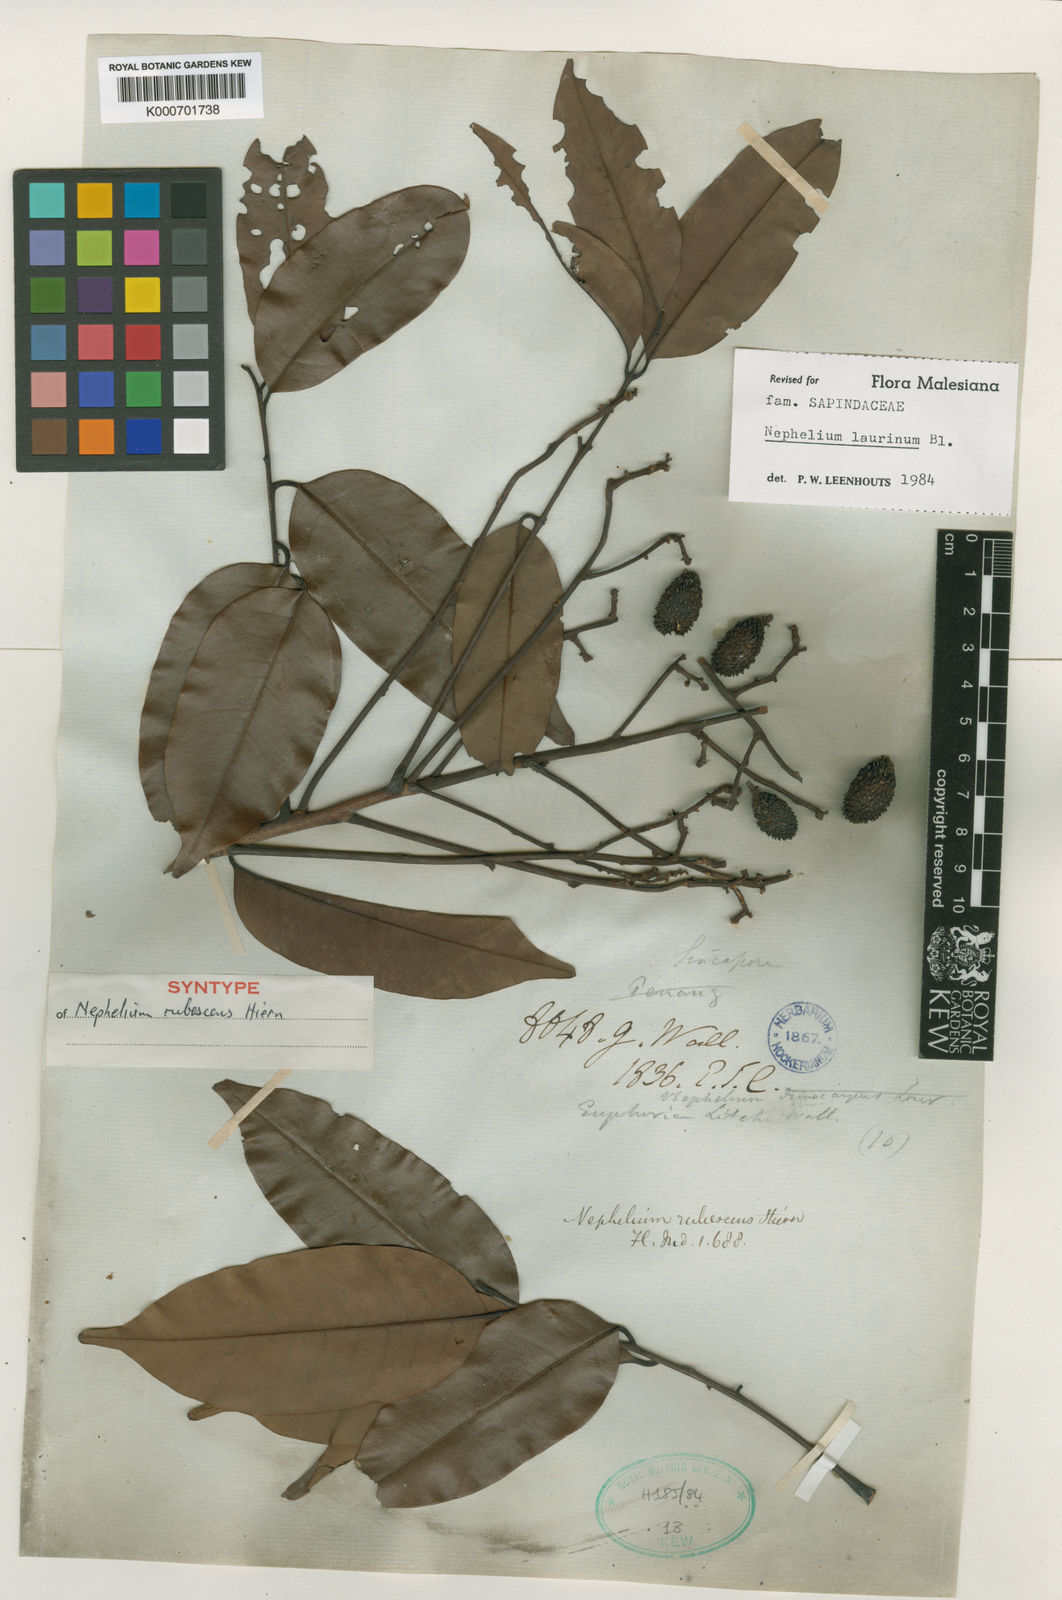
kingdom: Plantae
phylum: Tracheophyta
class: Magnoliopsida
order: Sapindales
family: Sapindaceae
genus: Nephelium
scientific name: Nephelium laurinum
